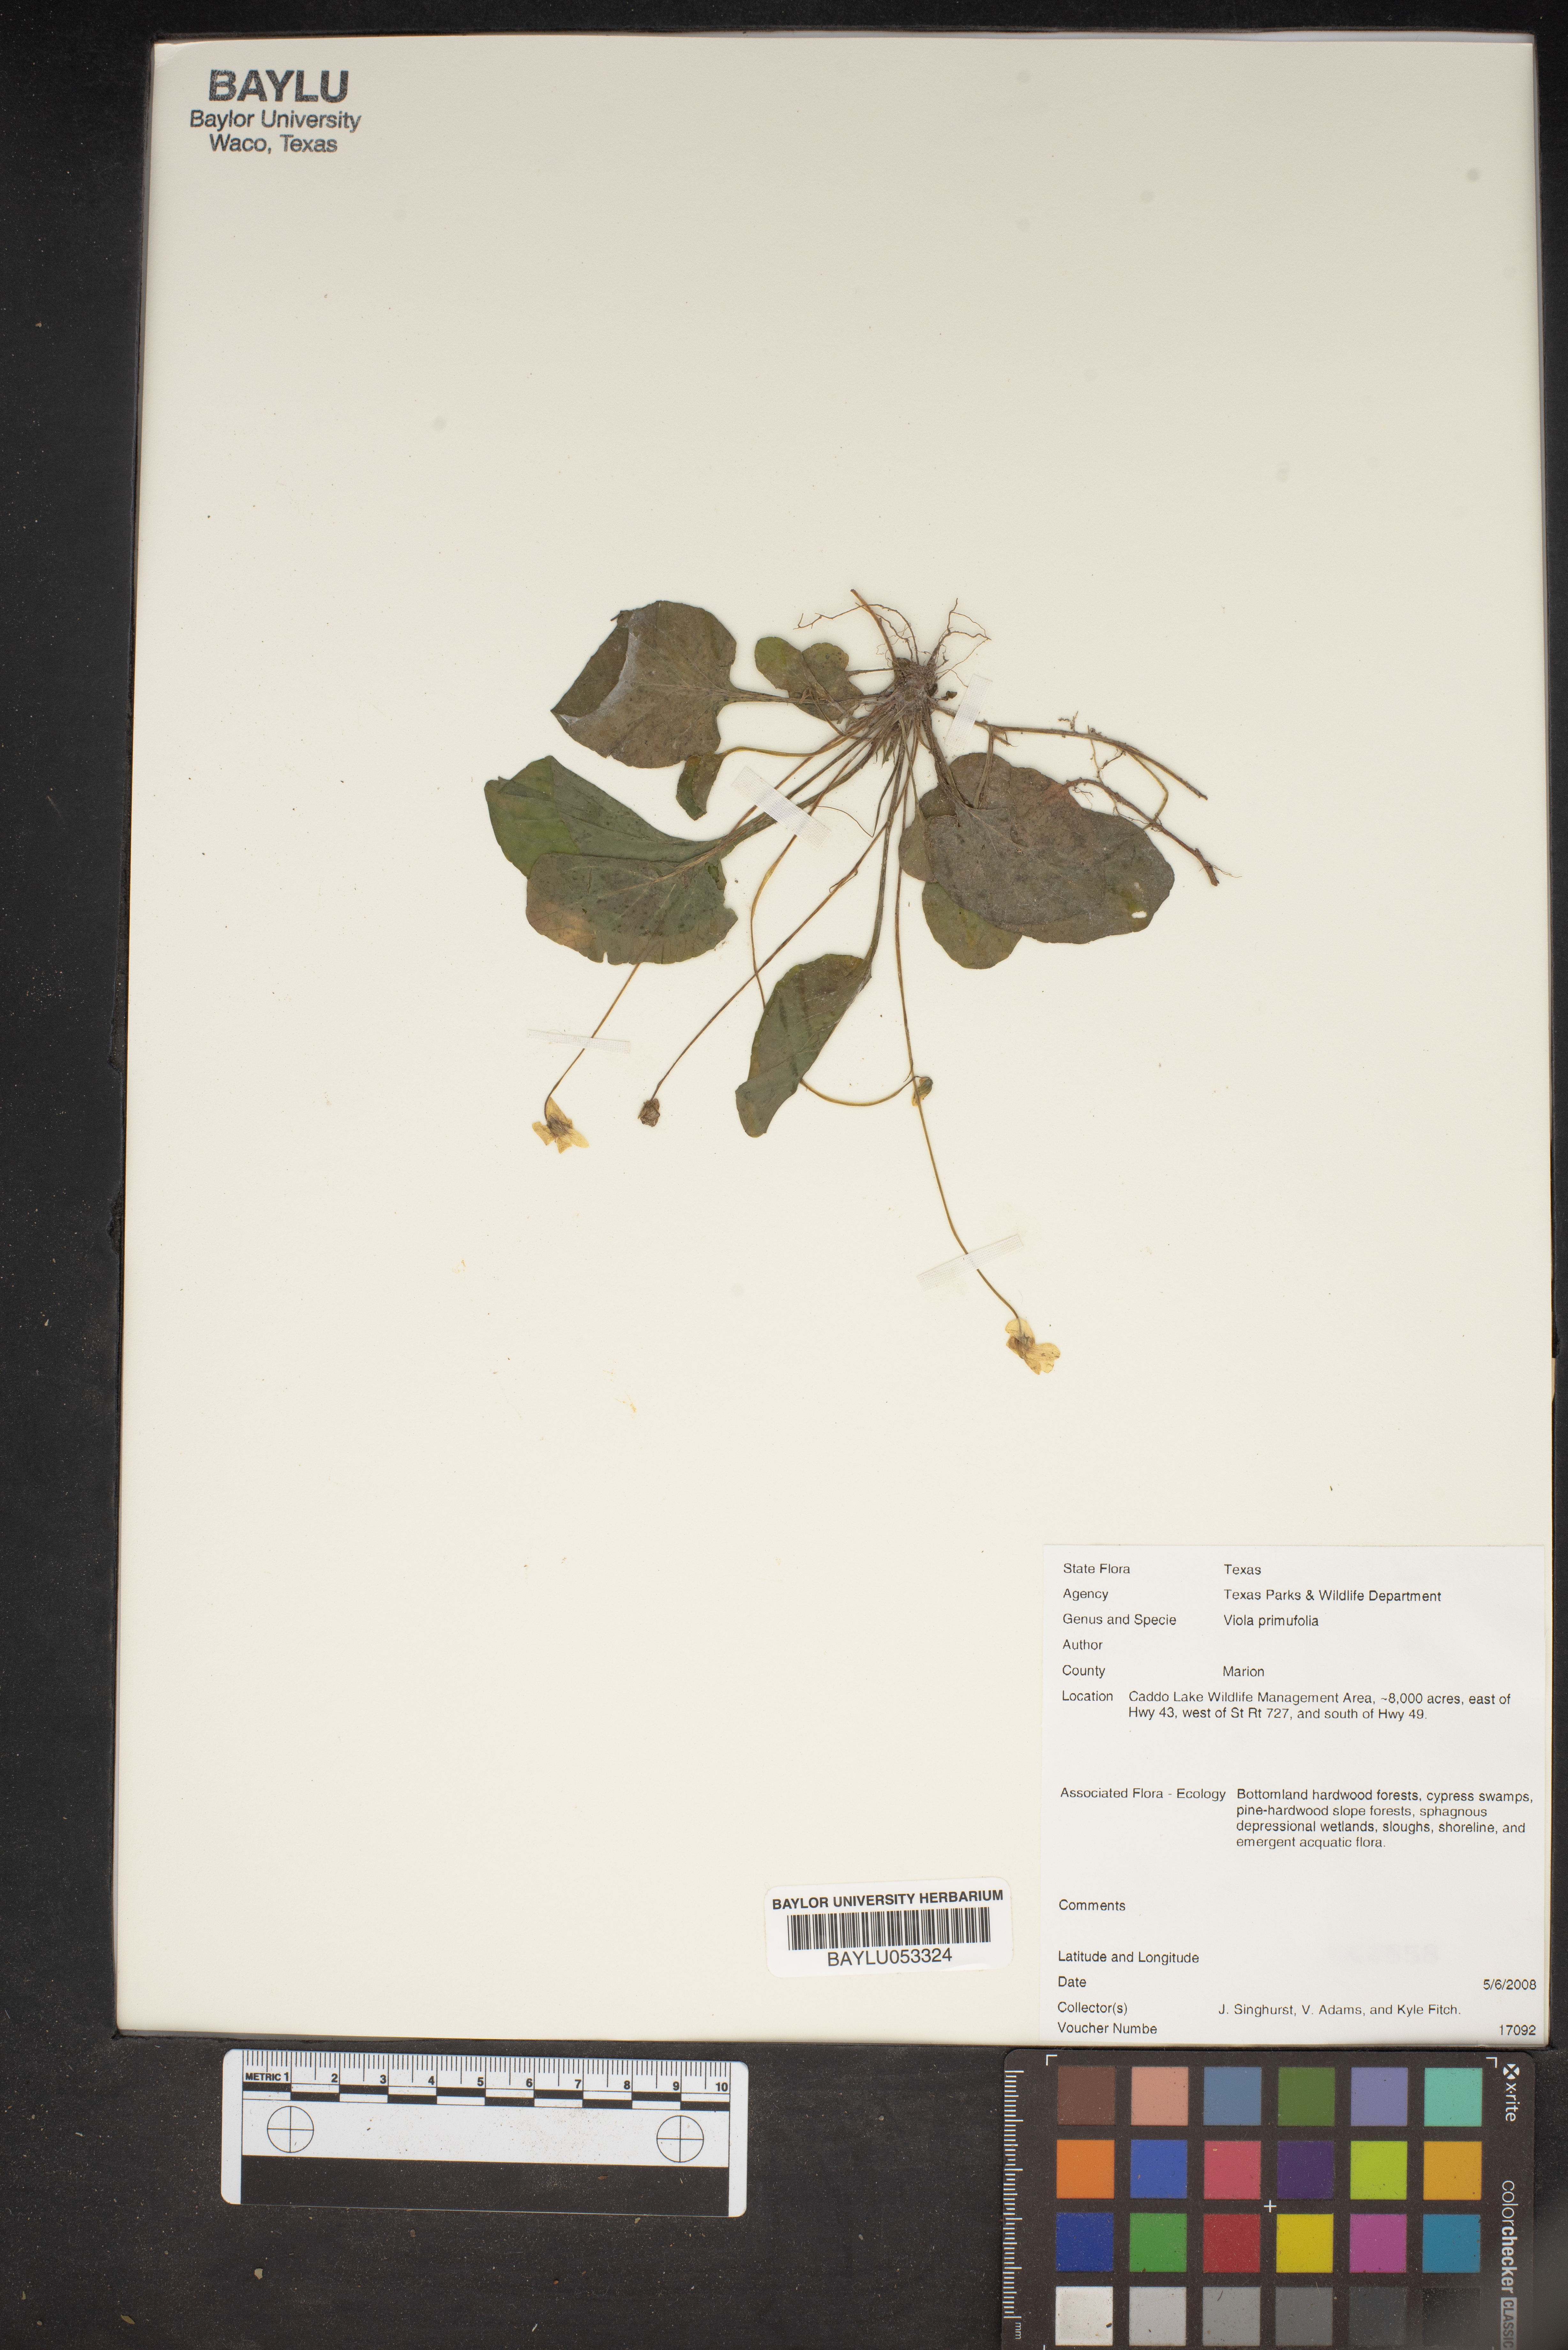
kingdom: Plantae
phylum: Tracheophyta
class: Magnoliopsida
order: Malpighiales
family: Violaceae
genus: Viola
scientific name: Viola primulifolia
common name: Primrose-leaf violet
